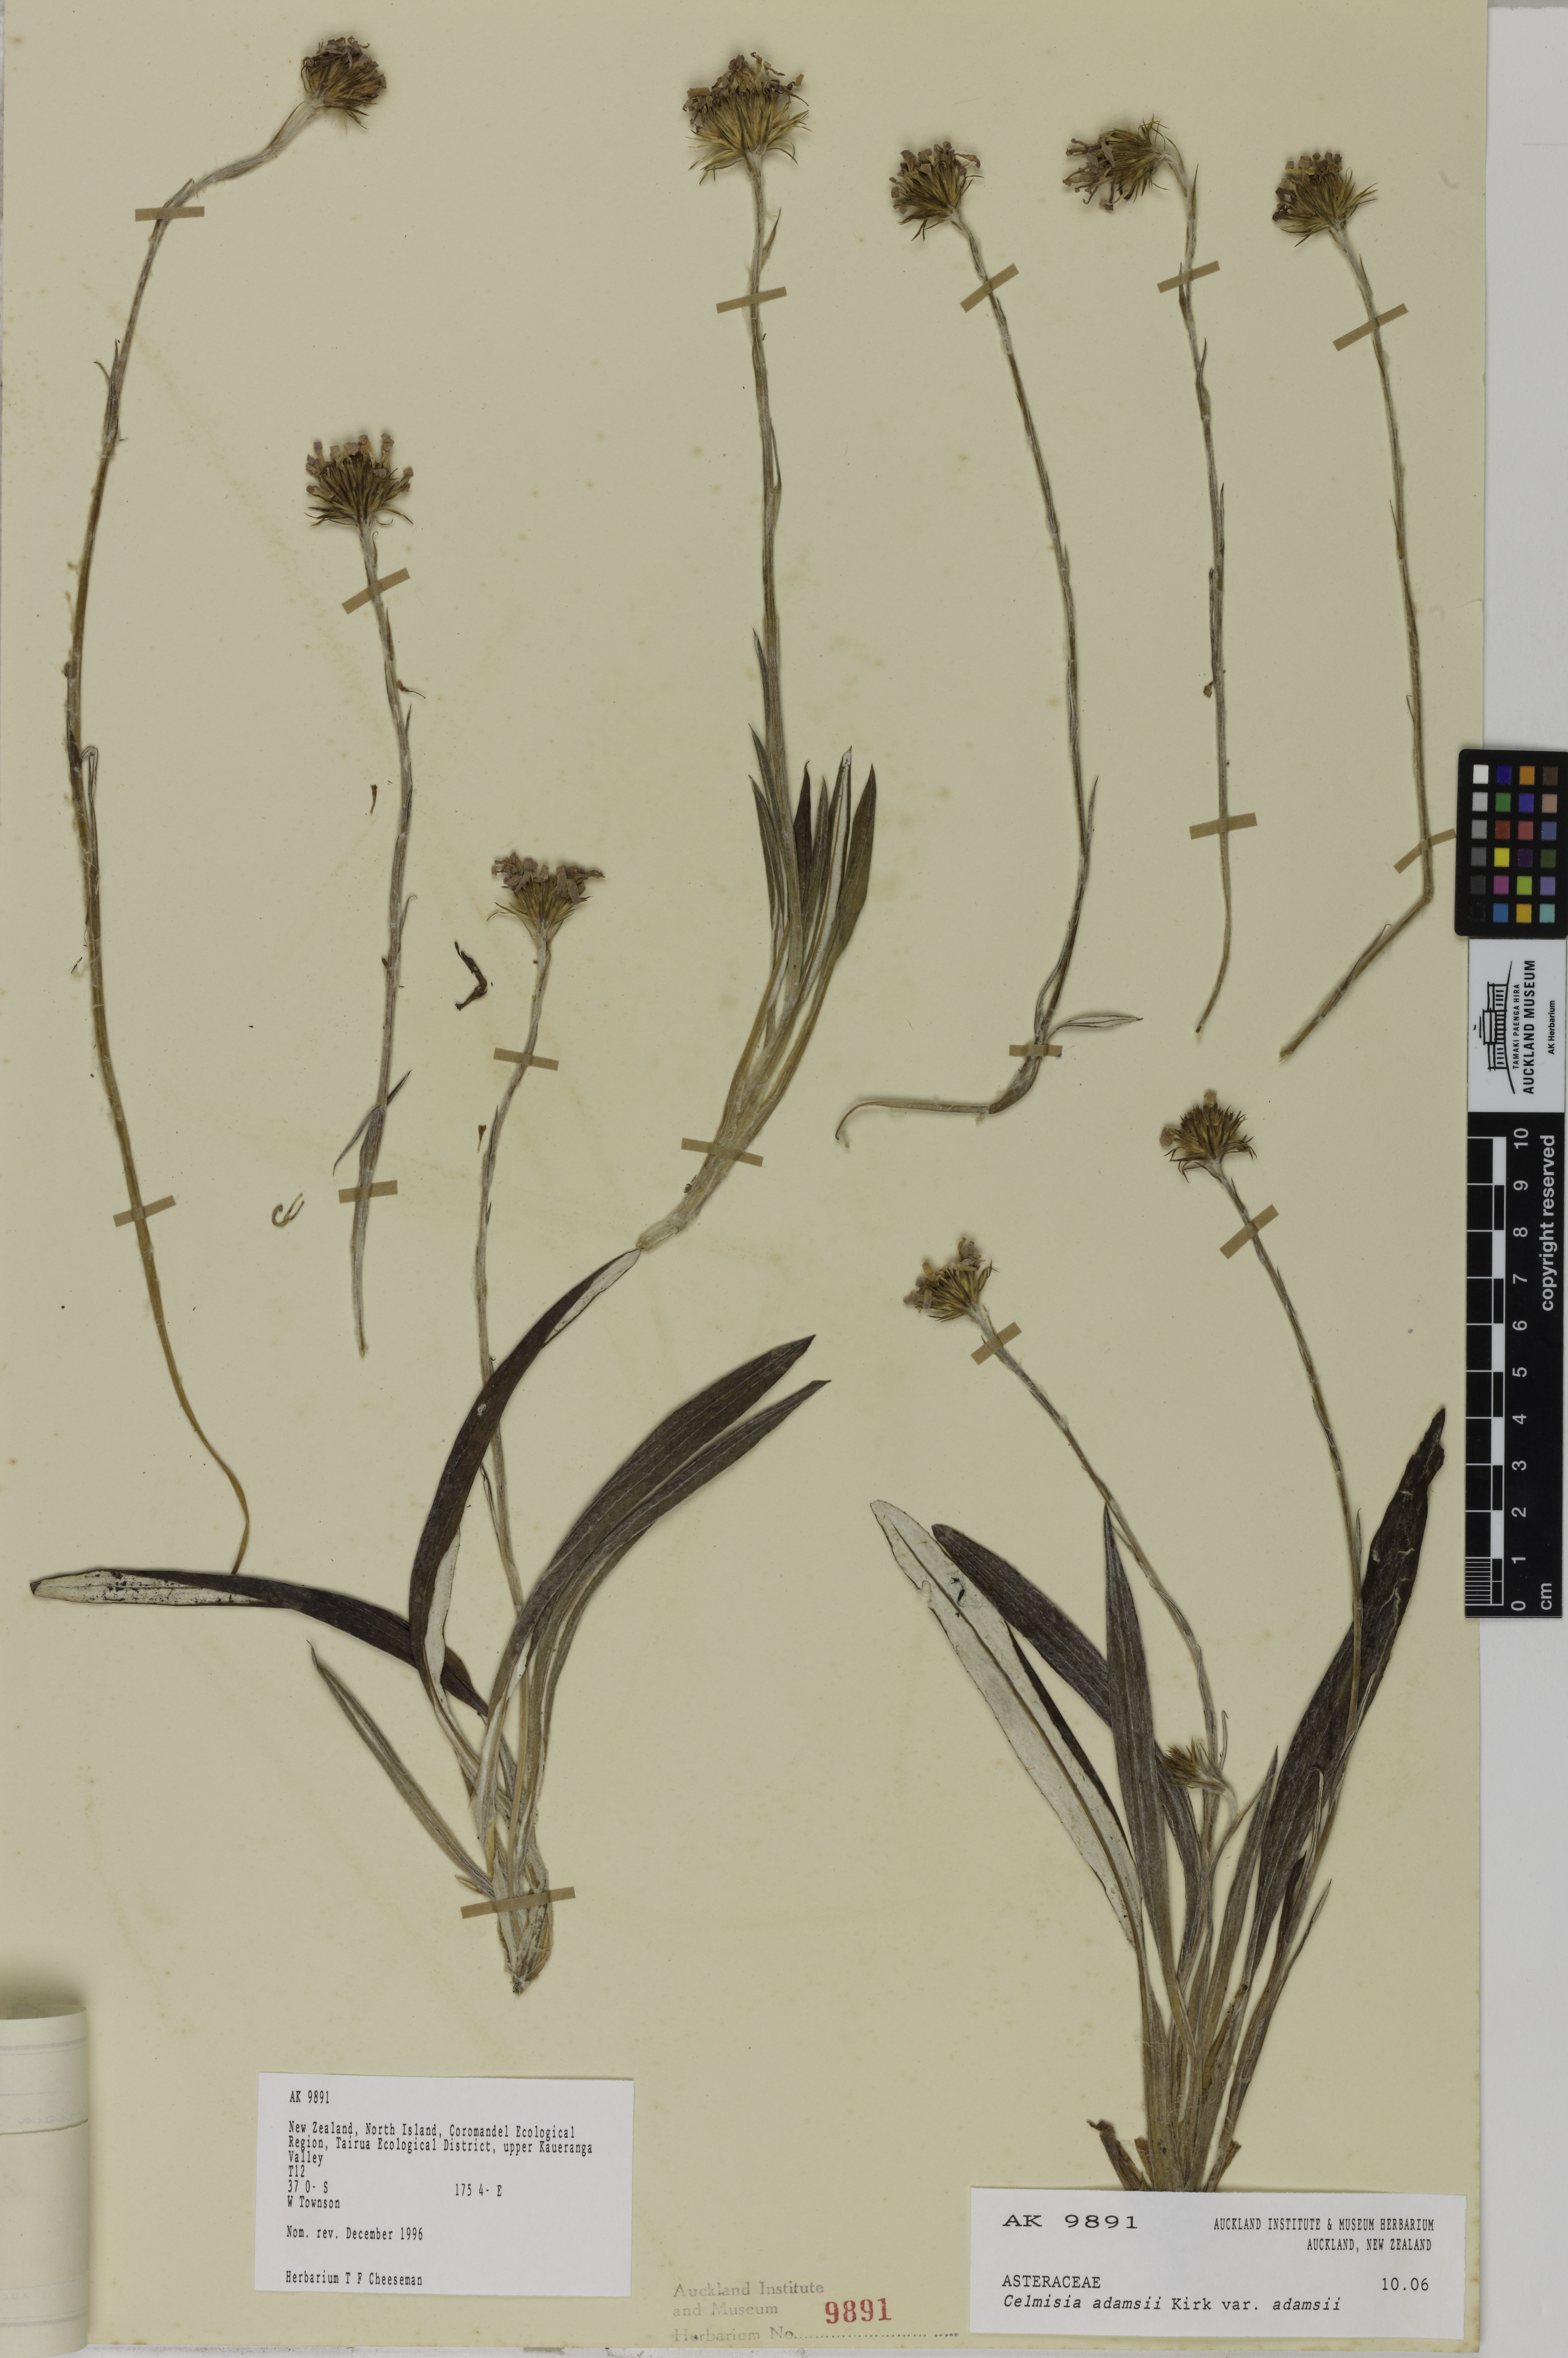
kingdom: Plantae
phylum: Tracheophyta
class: Magnoliopsida
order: Asterales
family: Asteraceae
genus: Celmisia
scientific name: Celmisia adamsii
